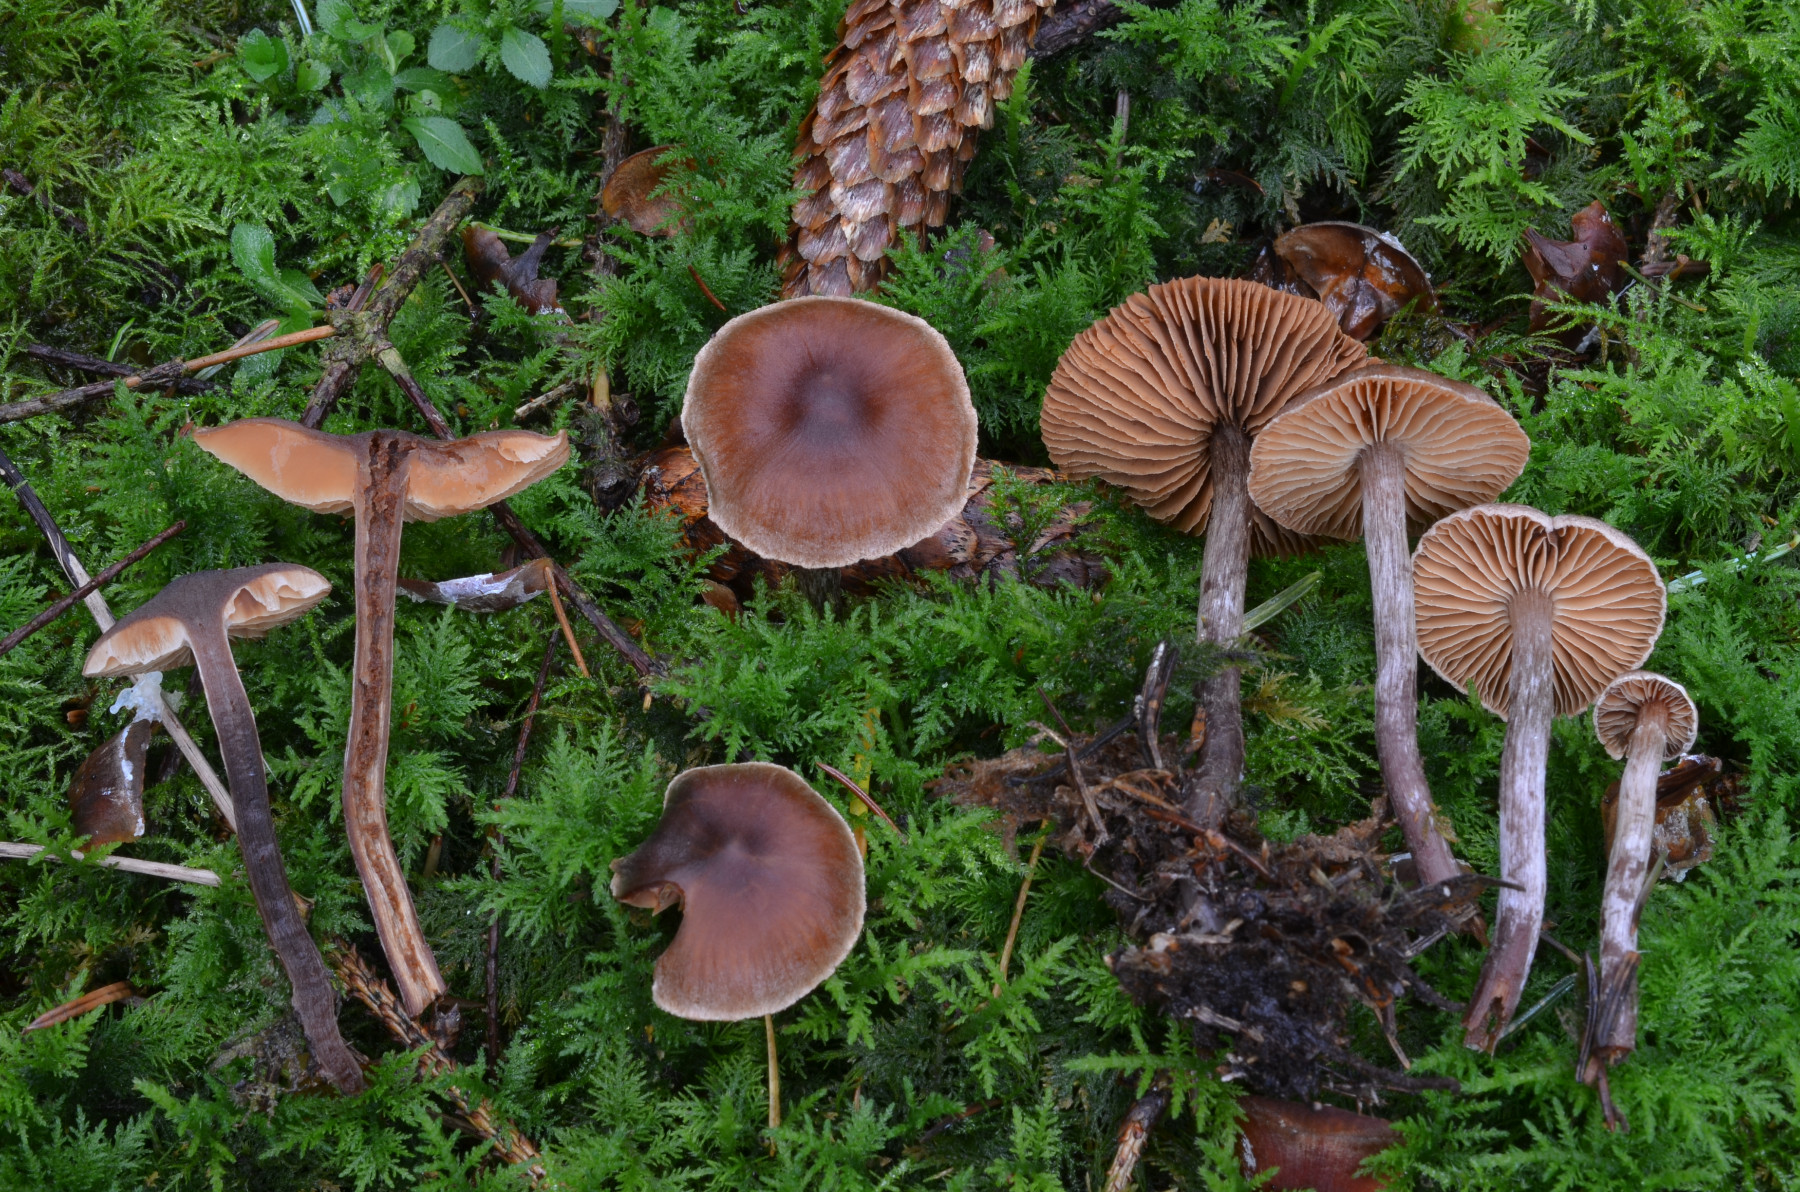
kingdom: Fungi
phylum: Basidiomycota
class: Agaricomycetes
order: Agaricales
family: Cortinariaceae
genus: Cortinarius
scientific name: Cortinarius atroalbus
